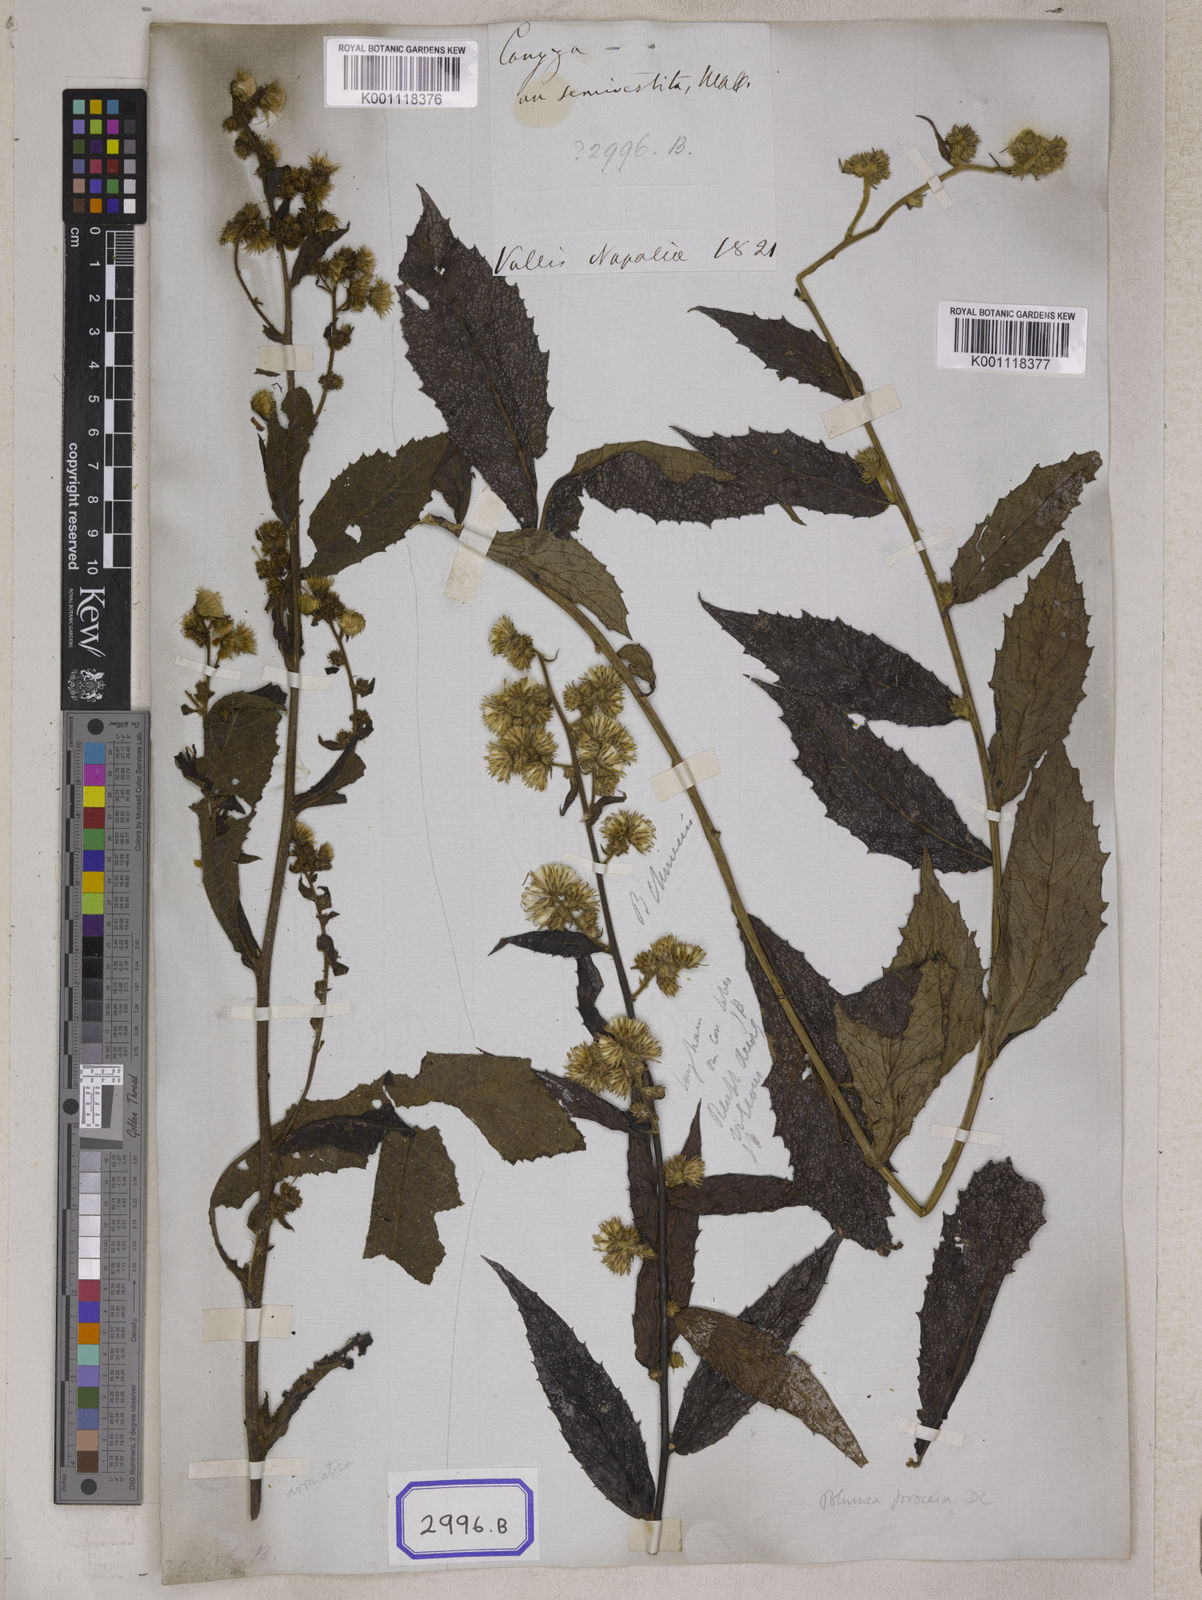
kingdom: Plantae
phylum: Tracheophyta
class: Magnoliopsida
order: Asterales
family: Asteraceae
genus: Blumea
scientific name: Blumea repanda
